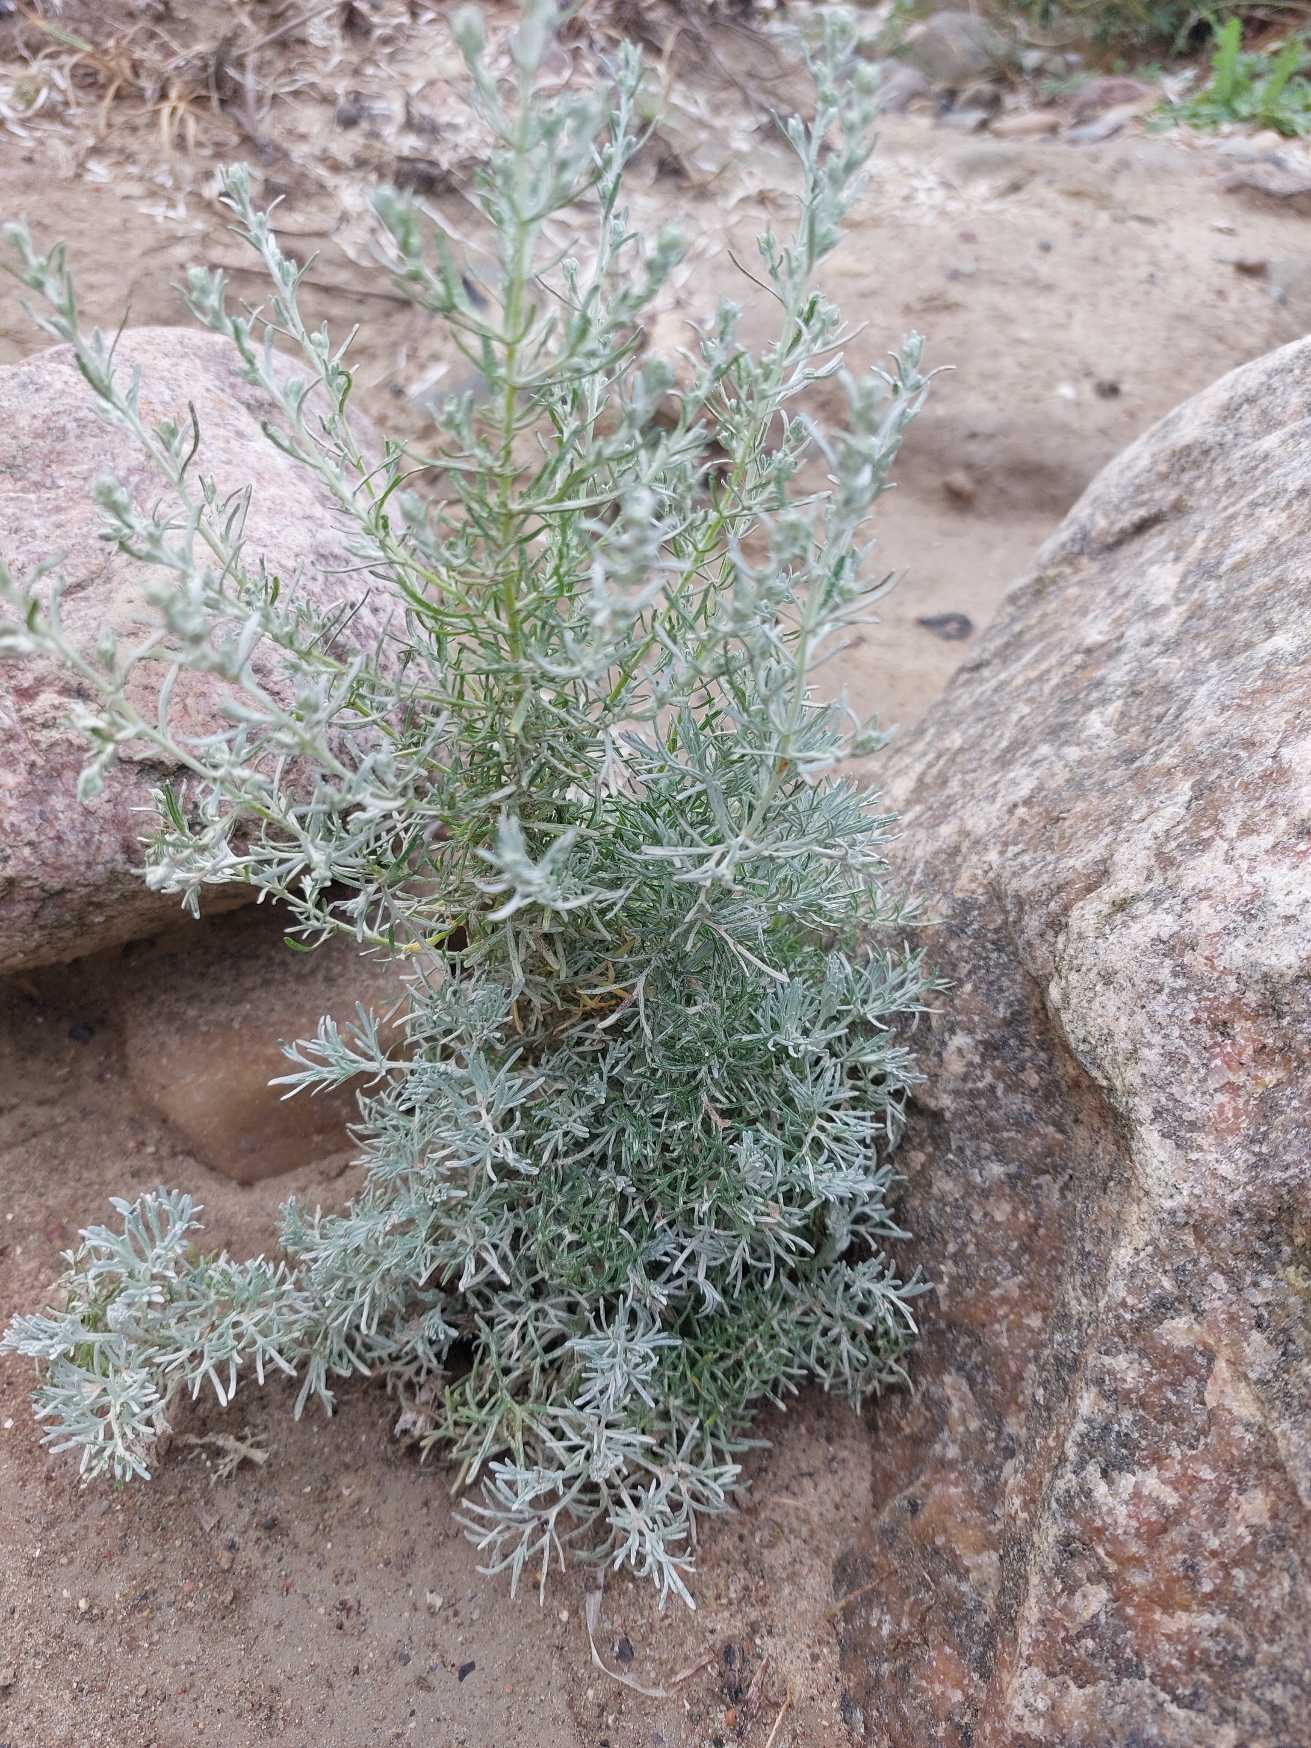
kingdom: Plantae
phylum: Tracheophyta
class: Magnoliopsida
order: Asterales
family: Asteraceae
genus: Artemisia
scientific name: Artemisia maritima
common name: Strandmalurt
